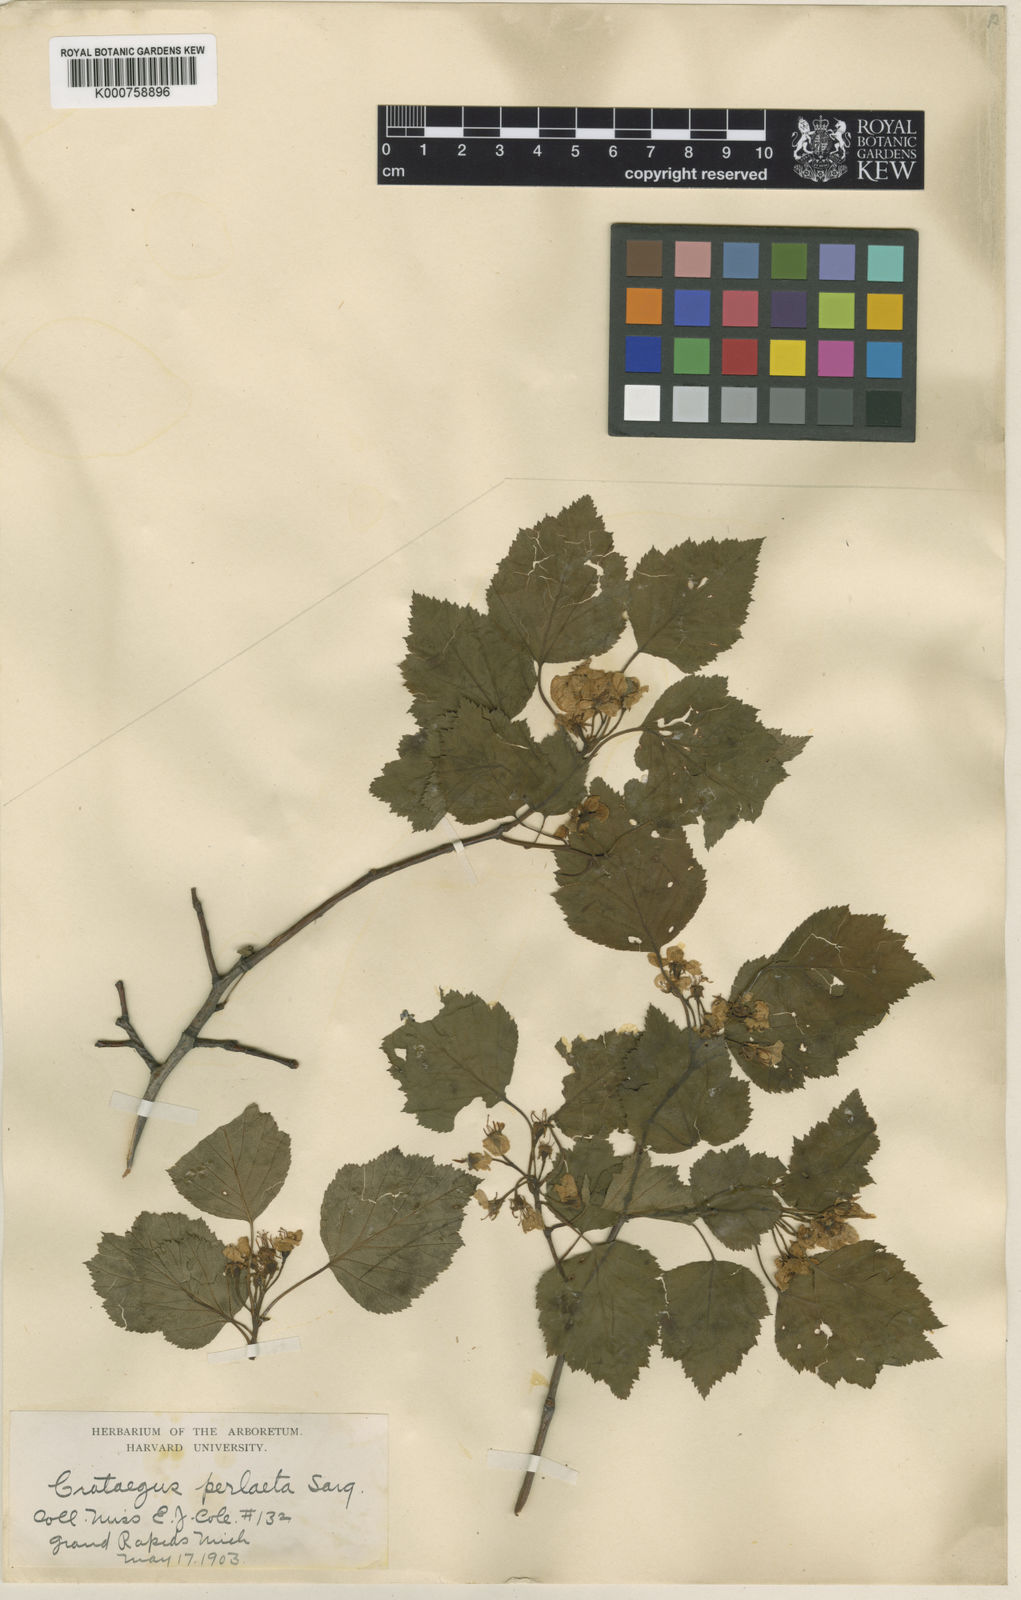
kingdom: Plantae
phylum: Tracheophyta
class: Magnoliopsida
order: Rosales
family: Rosaceae
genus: Crataegus
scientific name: Crataegus perlaeta
